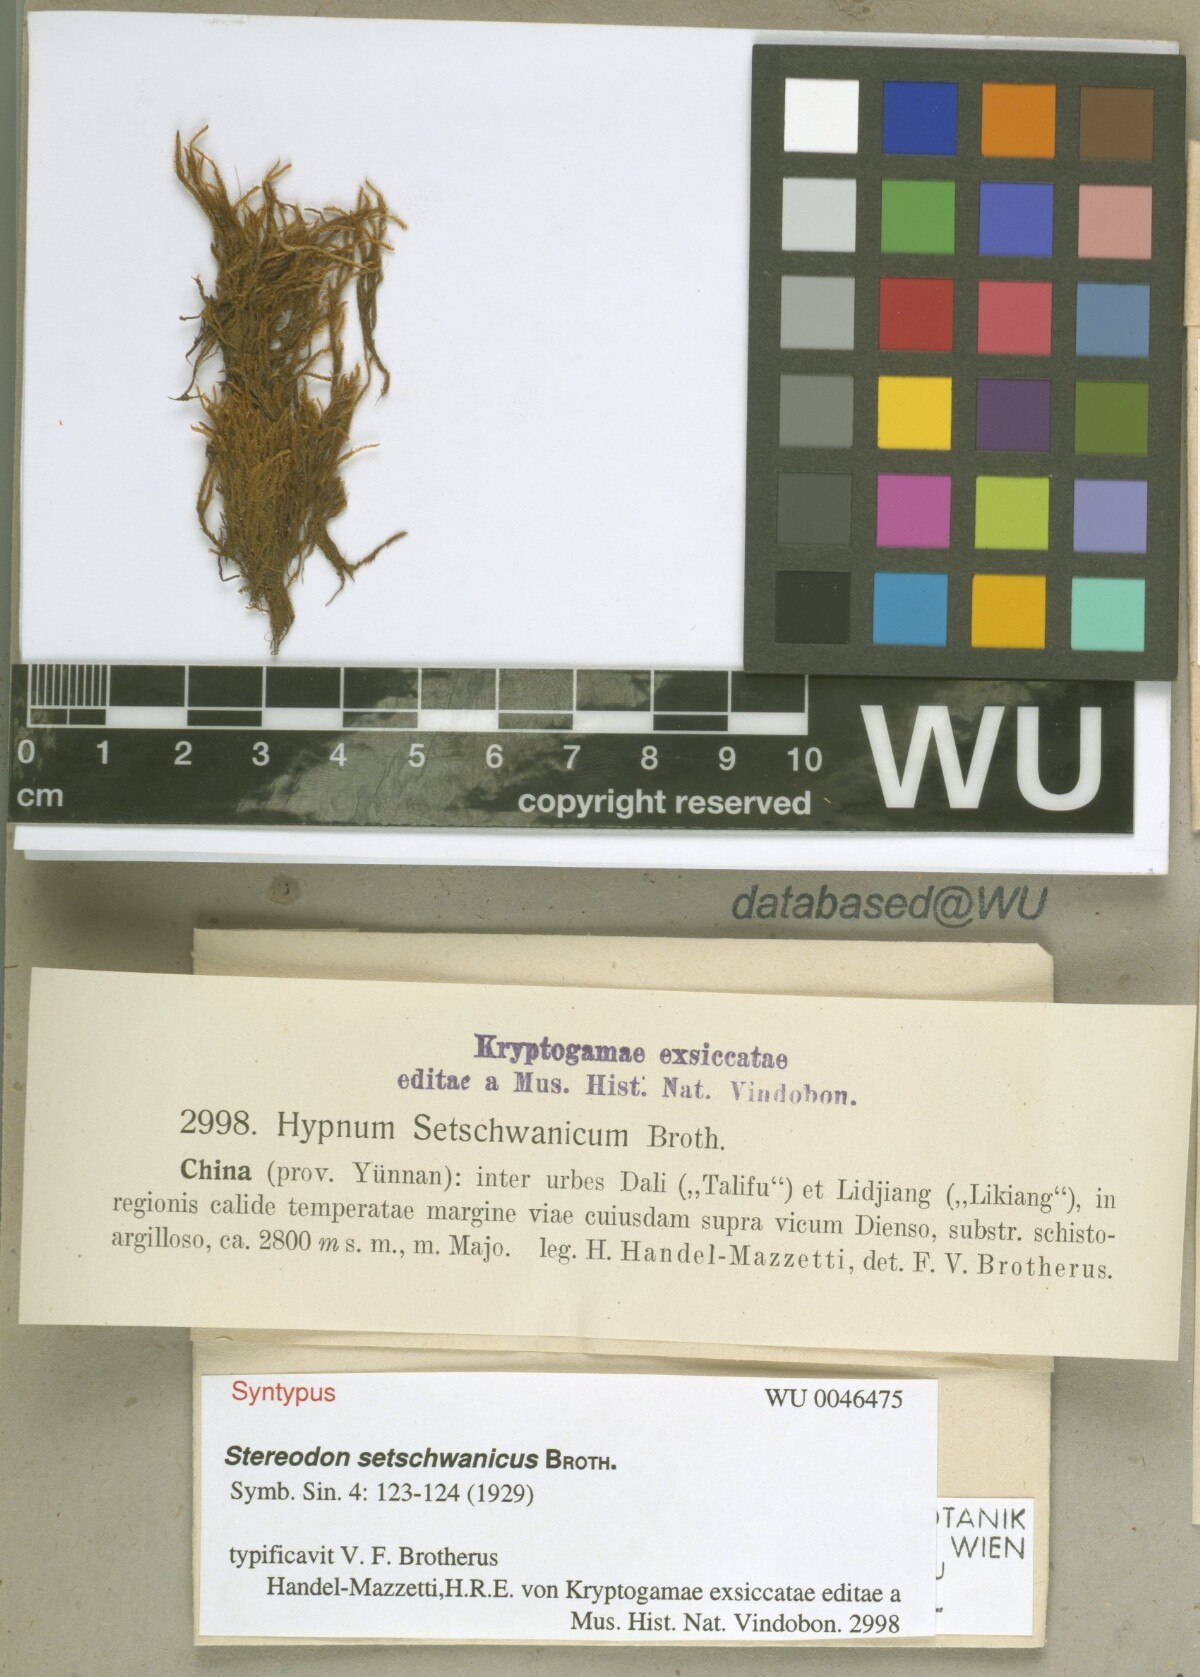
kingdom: Plantae
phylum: Bryophyta
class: Bryopsida
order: Hypnales
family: Hypnaceae
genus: Hypnum
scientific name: Hypnum setschwanicum
